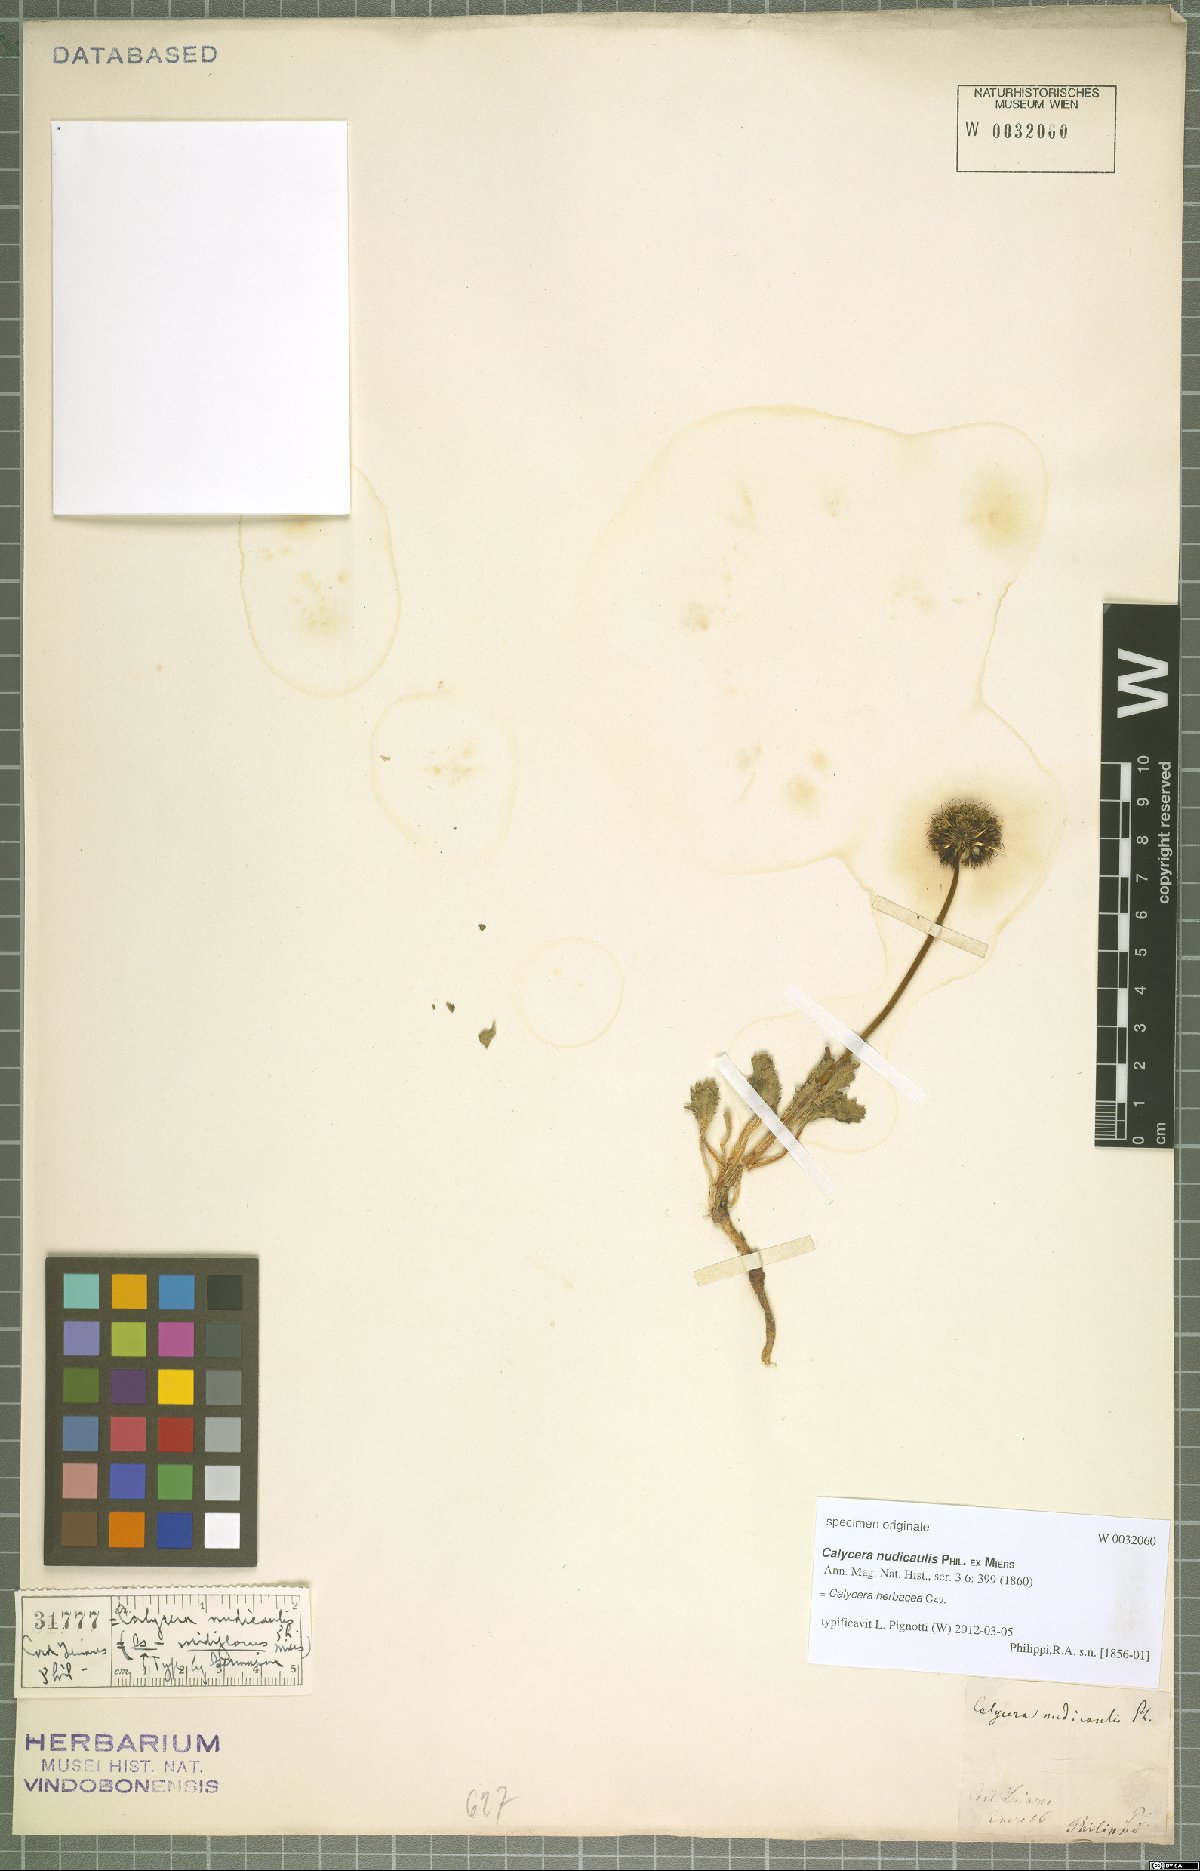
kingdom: Plantae
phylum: Tracheophyta
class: Magnoliopsida
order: Asterales
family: Calyceraceae
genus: Calycera
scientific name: Calycera herbacea
